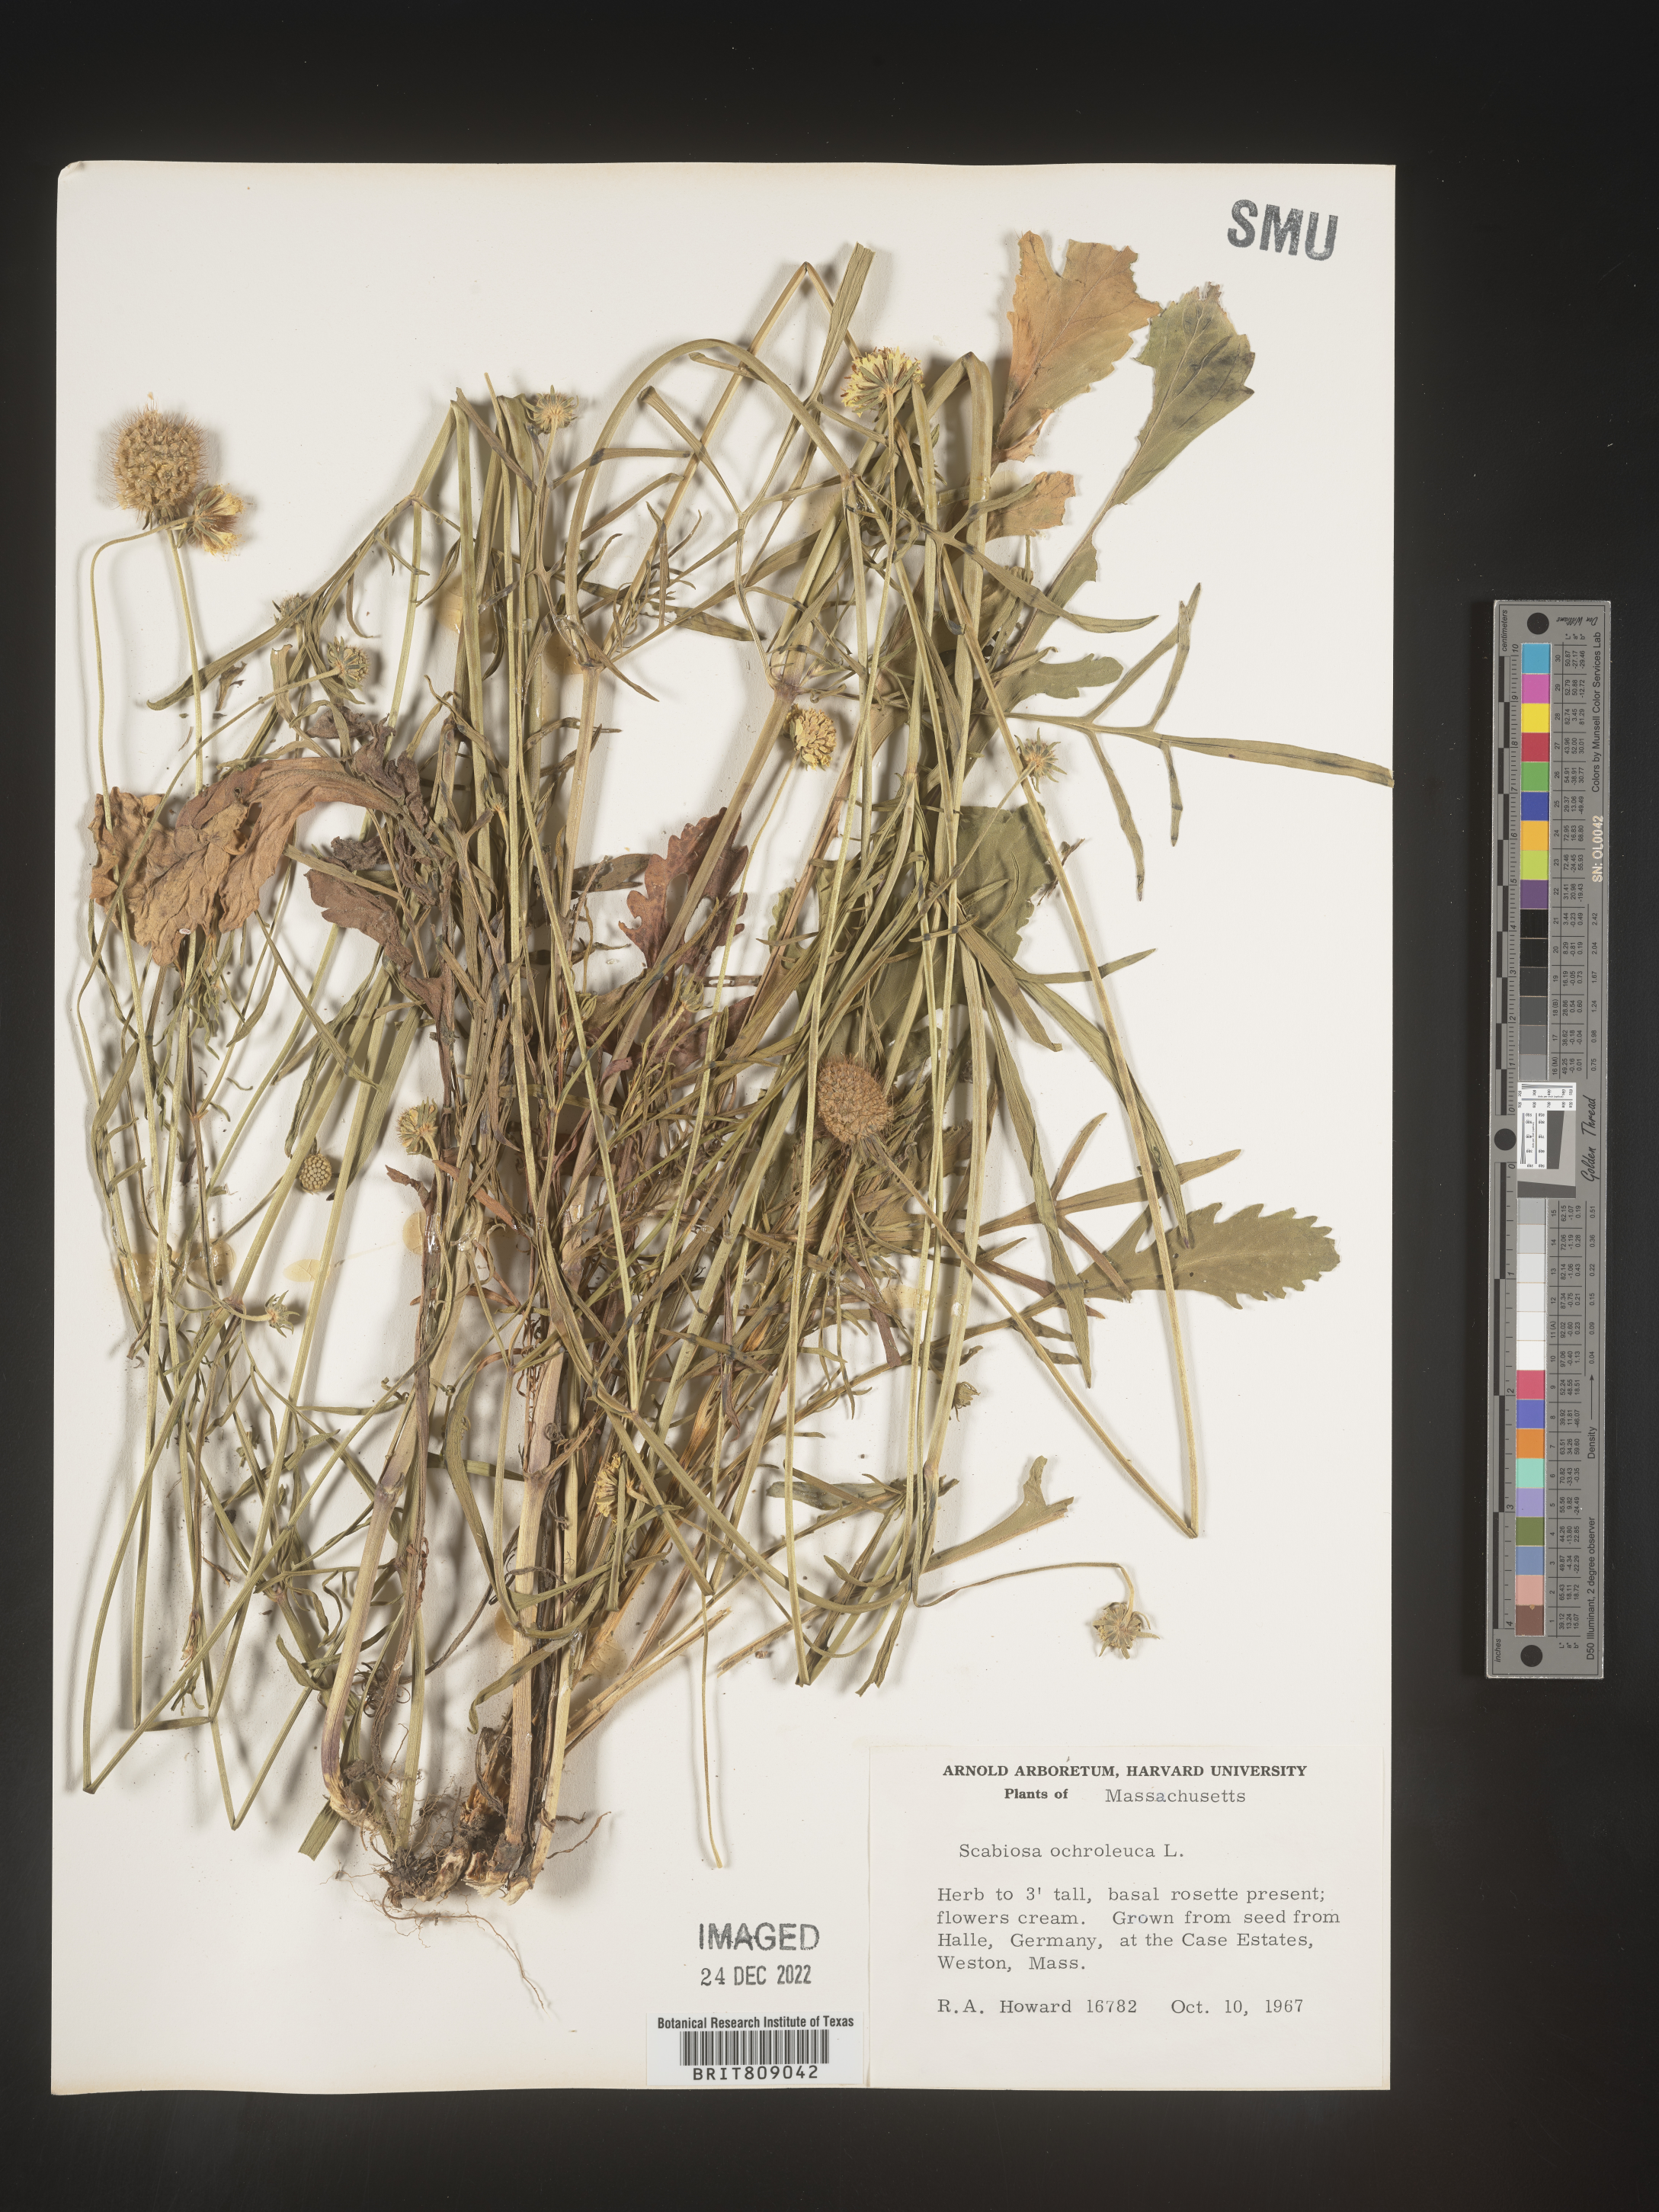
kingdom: Plantae
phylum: Tracheophyta
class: Magnoliopsida
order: Dipsacales
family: Caprifoliaceae
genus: Scabiosa
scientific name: Scabiosa
